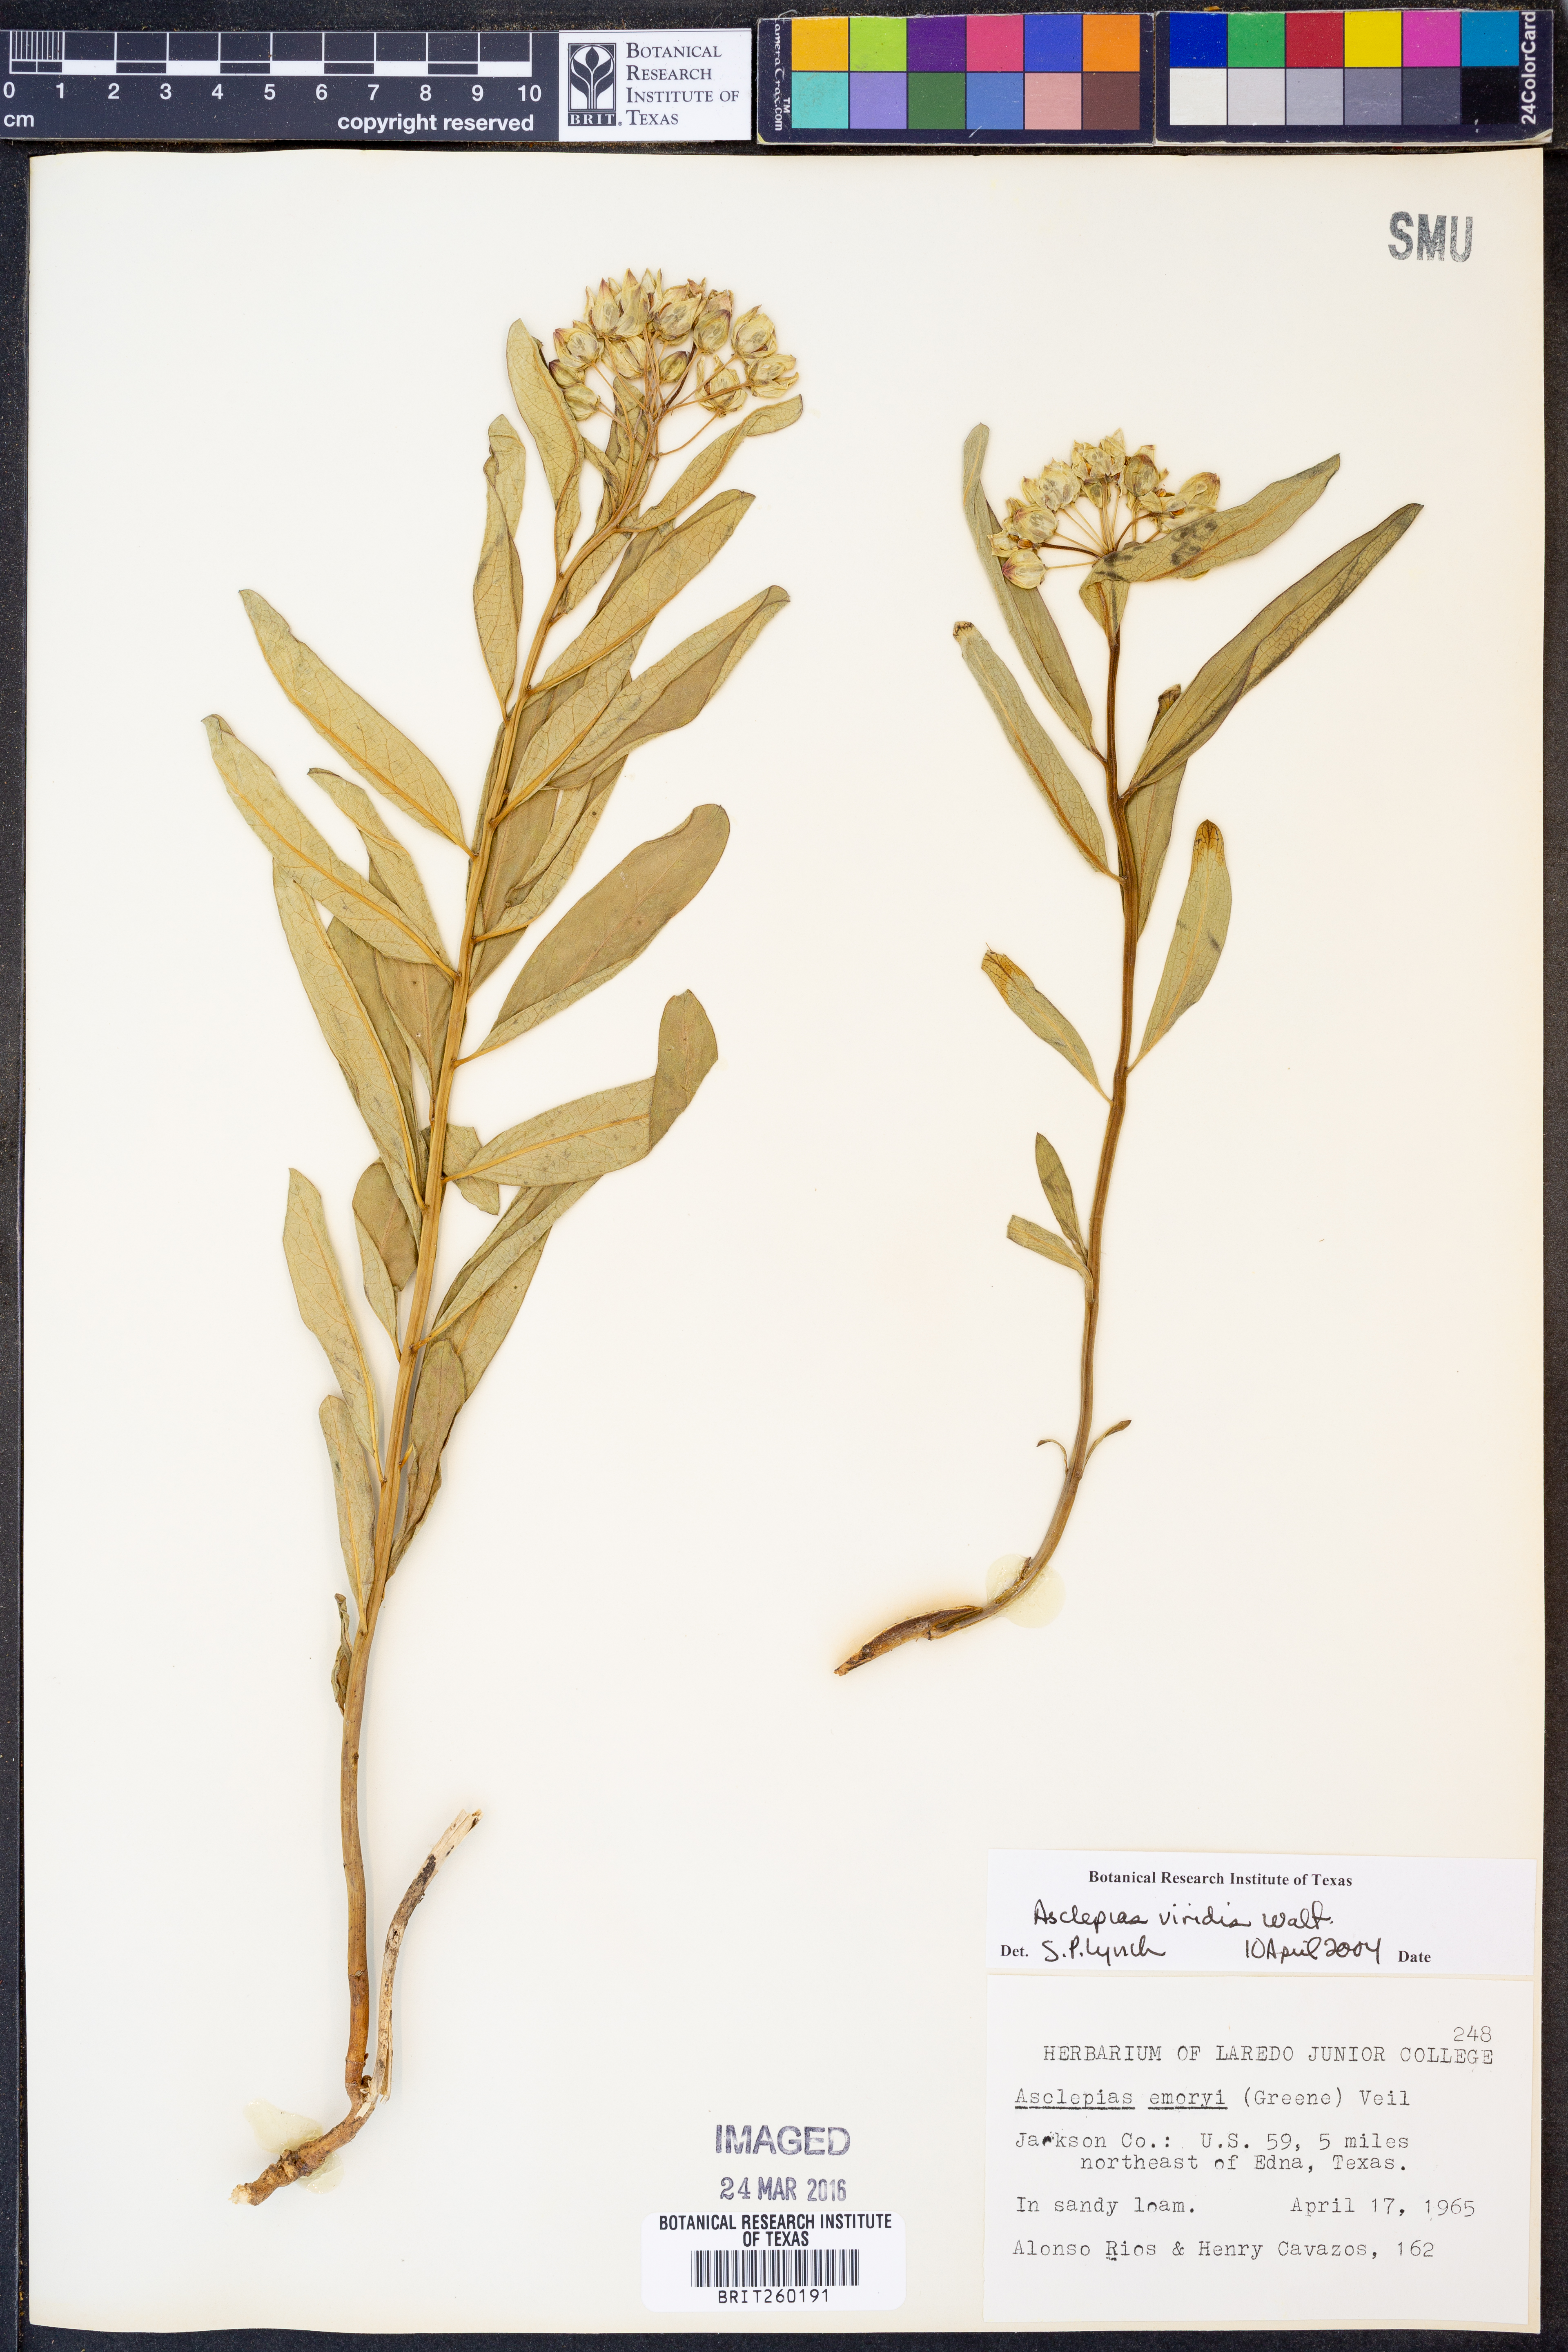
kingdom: Plantae
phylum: Tracheophyta
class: Magnoliopsida
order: Gentianales
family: Apocynaceae
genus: Asclepias
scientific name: Asclepias viridis
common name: Antelope-horns
